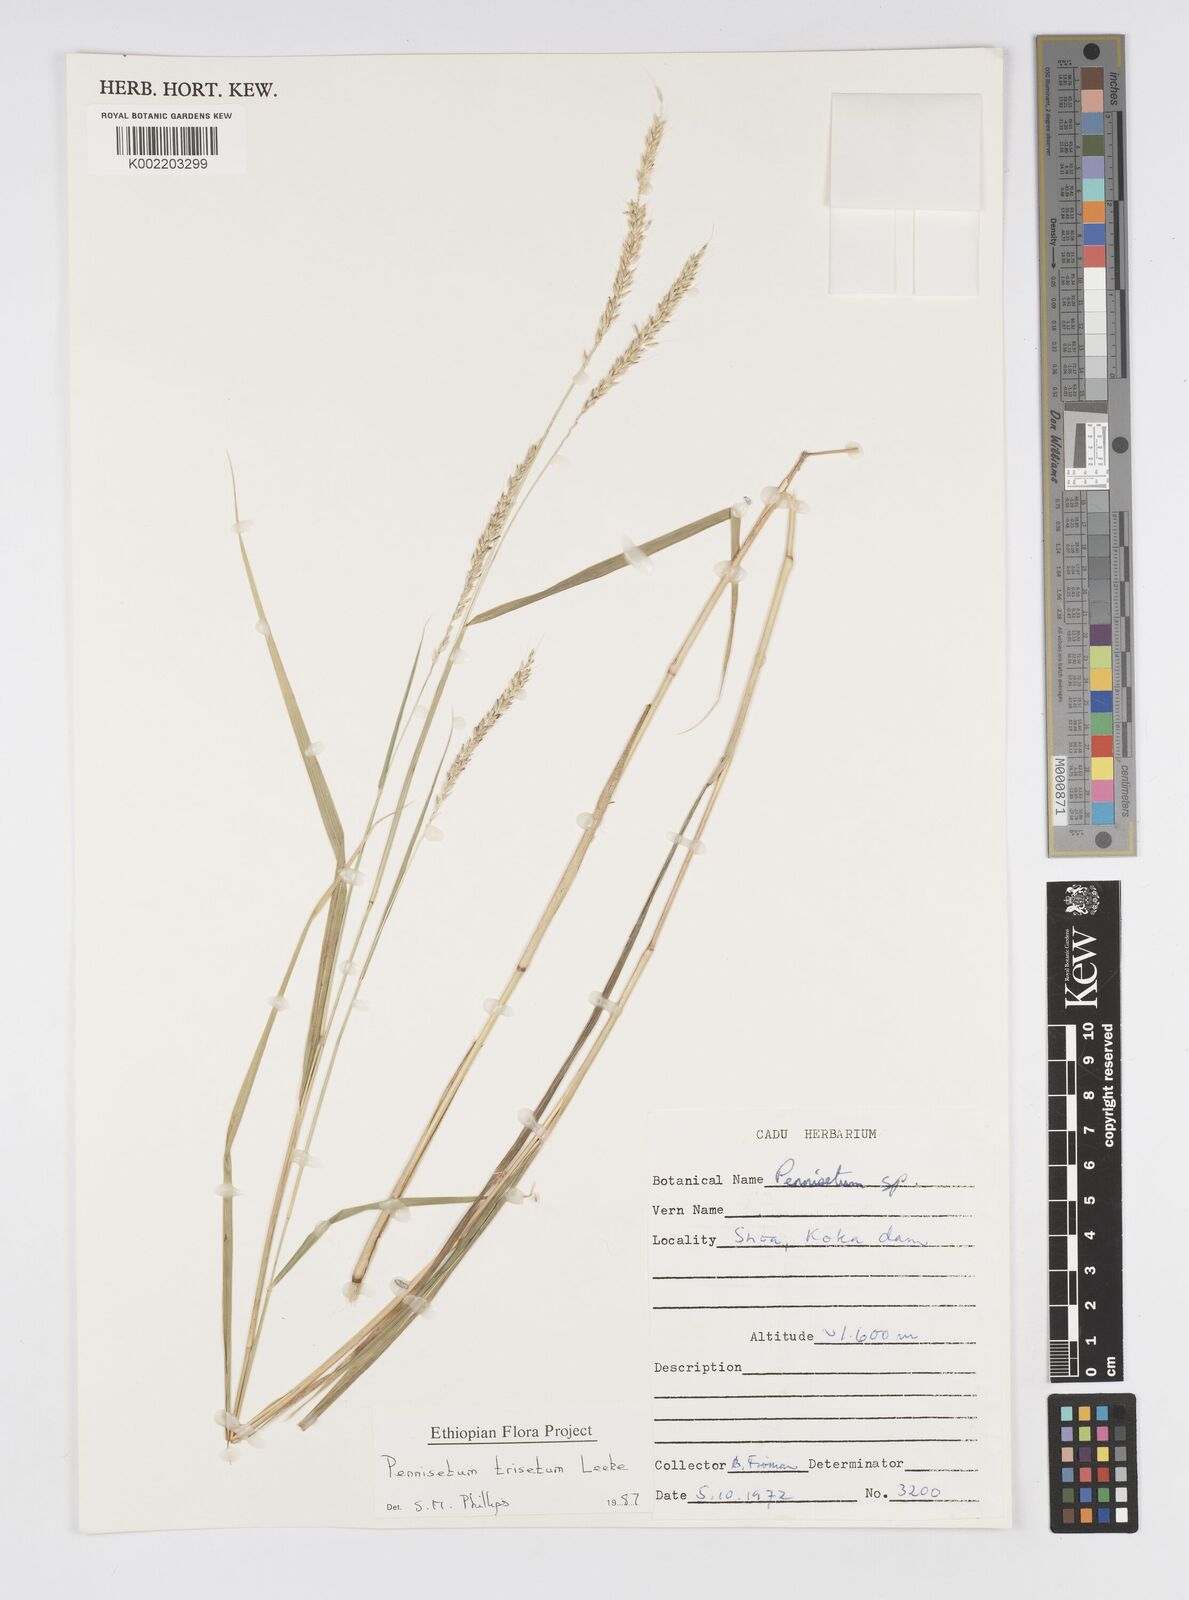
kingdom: Plantae
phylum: Tracheophyta
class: Liliopsida
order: Poales
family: Poaceae
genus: Cenchrus
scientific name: Cenchrus trisetus
